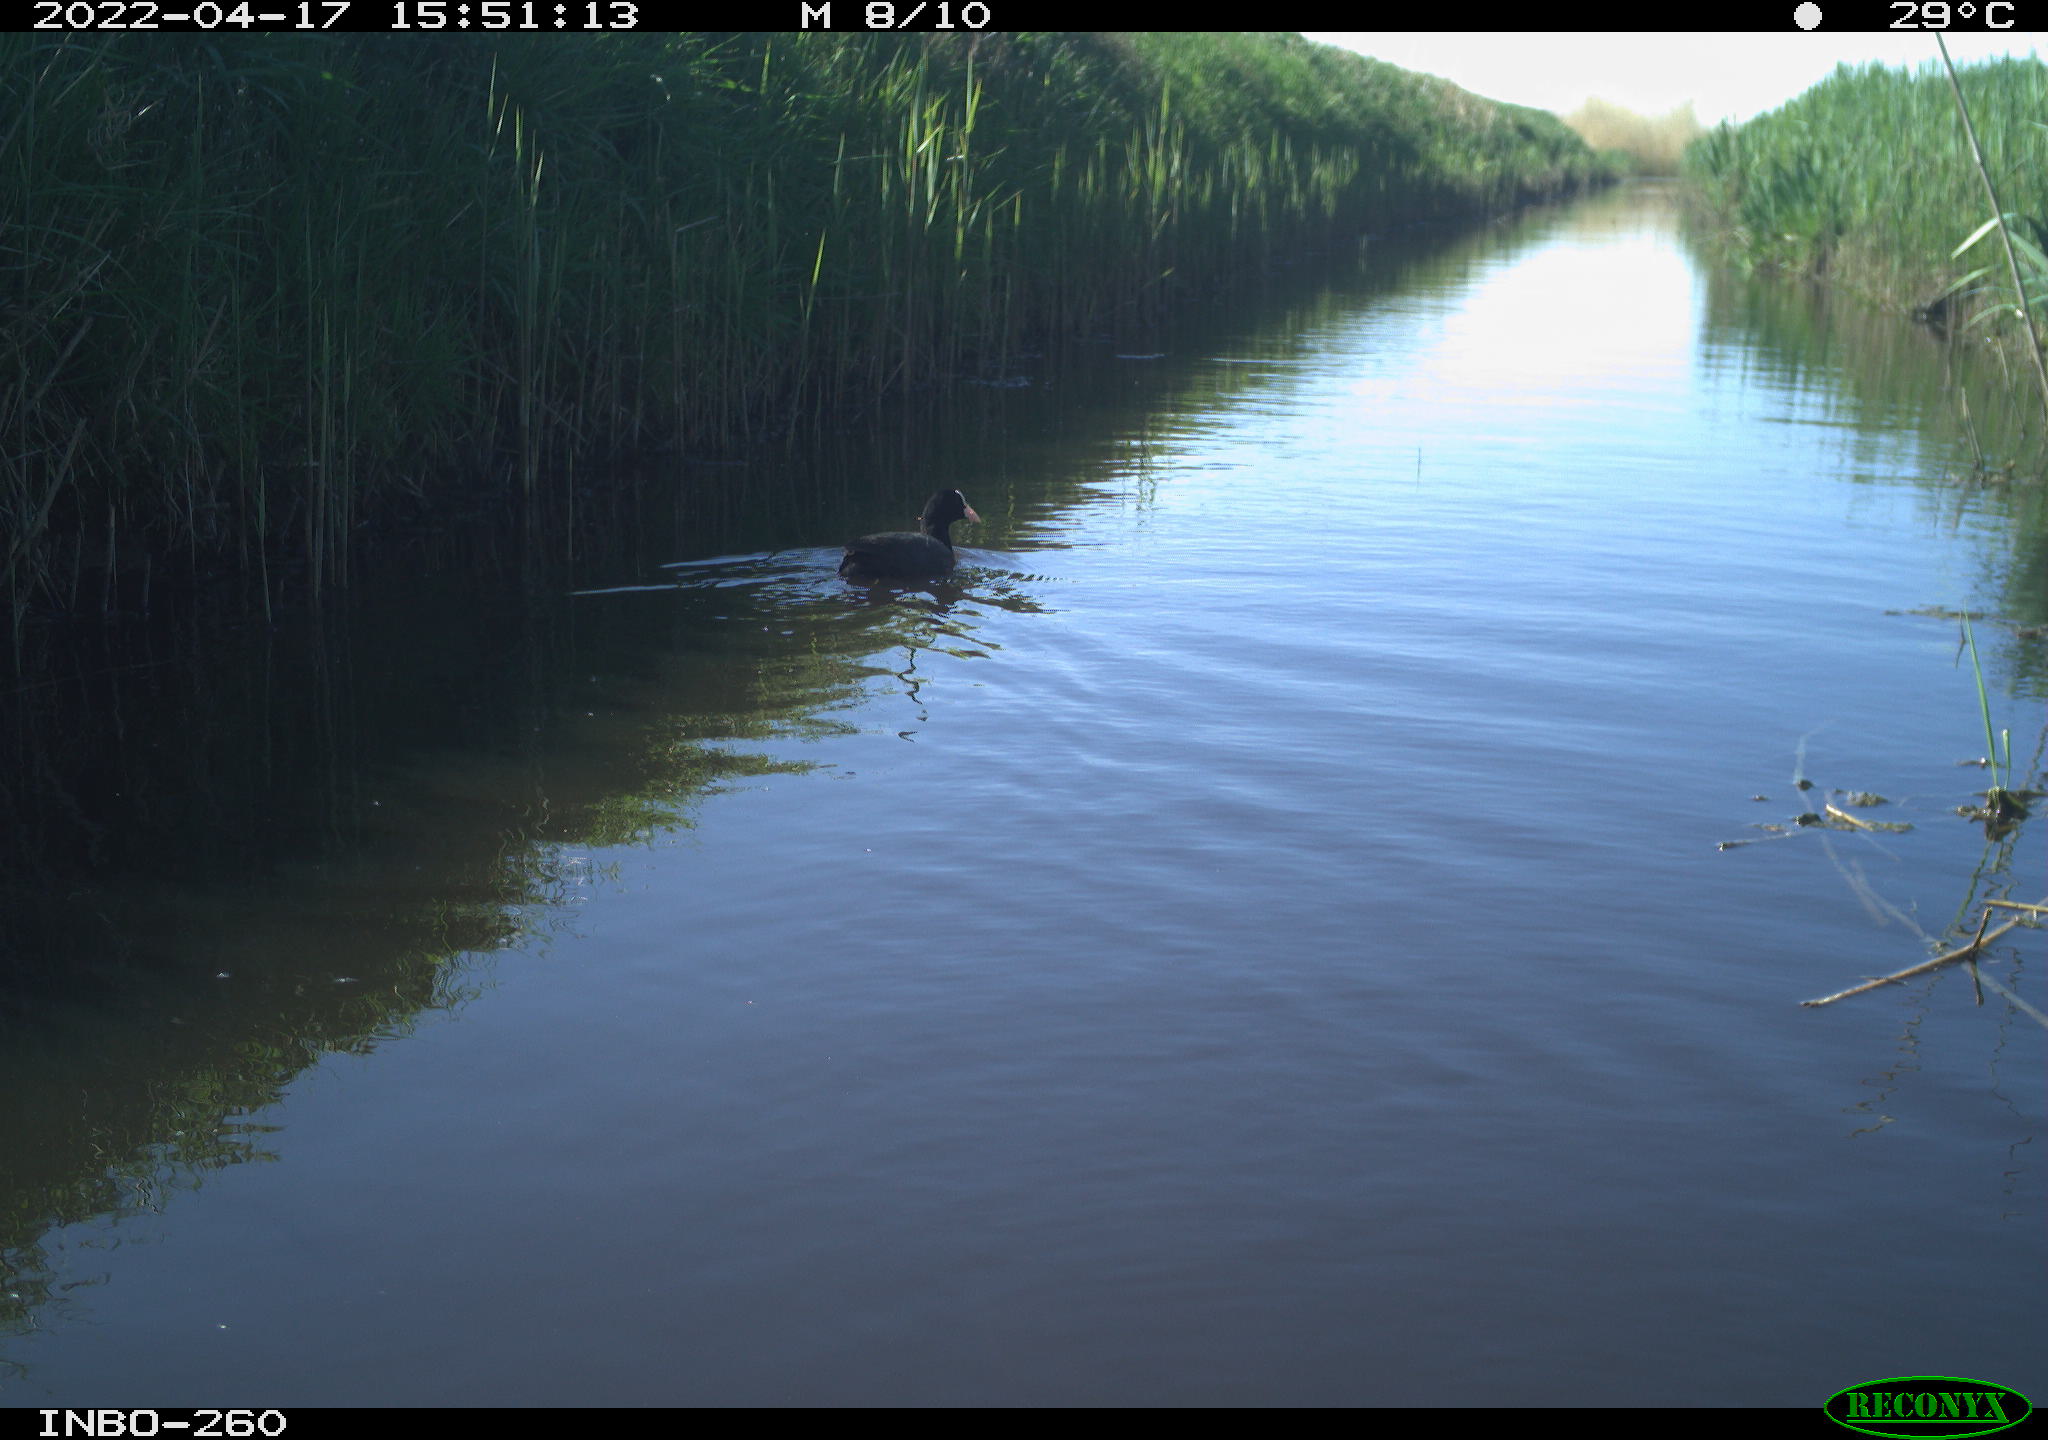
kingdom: Animalia
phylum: Chordata
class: Aves
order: Gruiformes
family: Rallidae
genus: Fulica
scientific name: Fulica atra
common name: Eurasian coot
